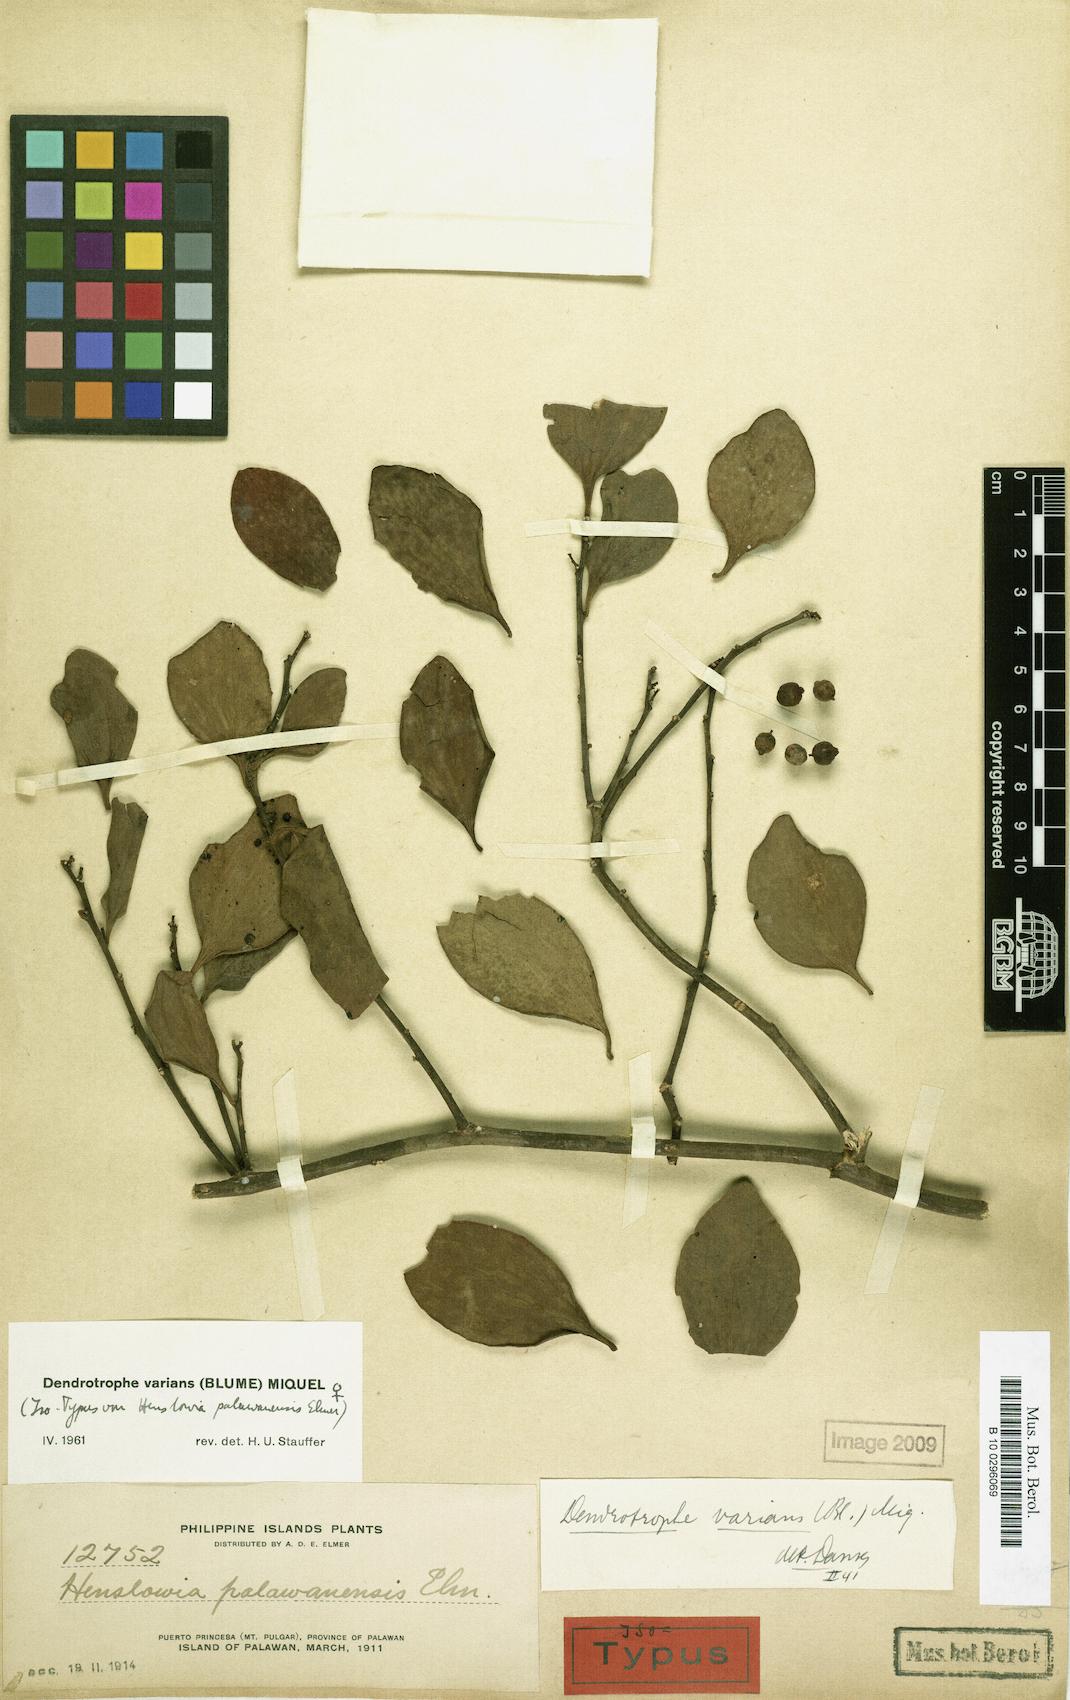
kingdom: Plantae
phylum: Tracheophyta
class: Magnoliopsida
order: Santalales
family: Amphorogynaceae
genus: Dendrotrophe
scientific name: Dendrotrophe varians
